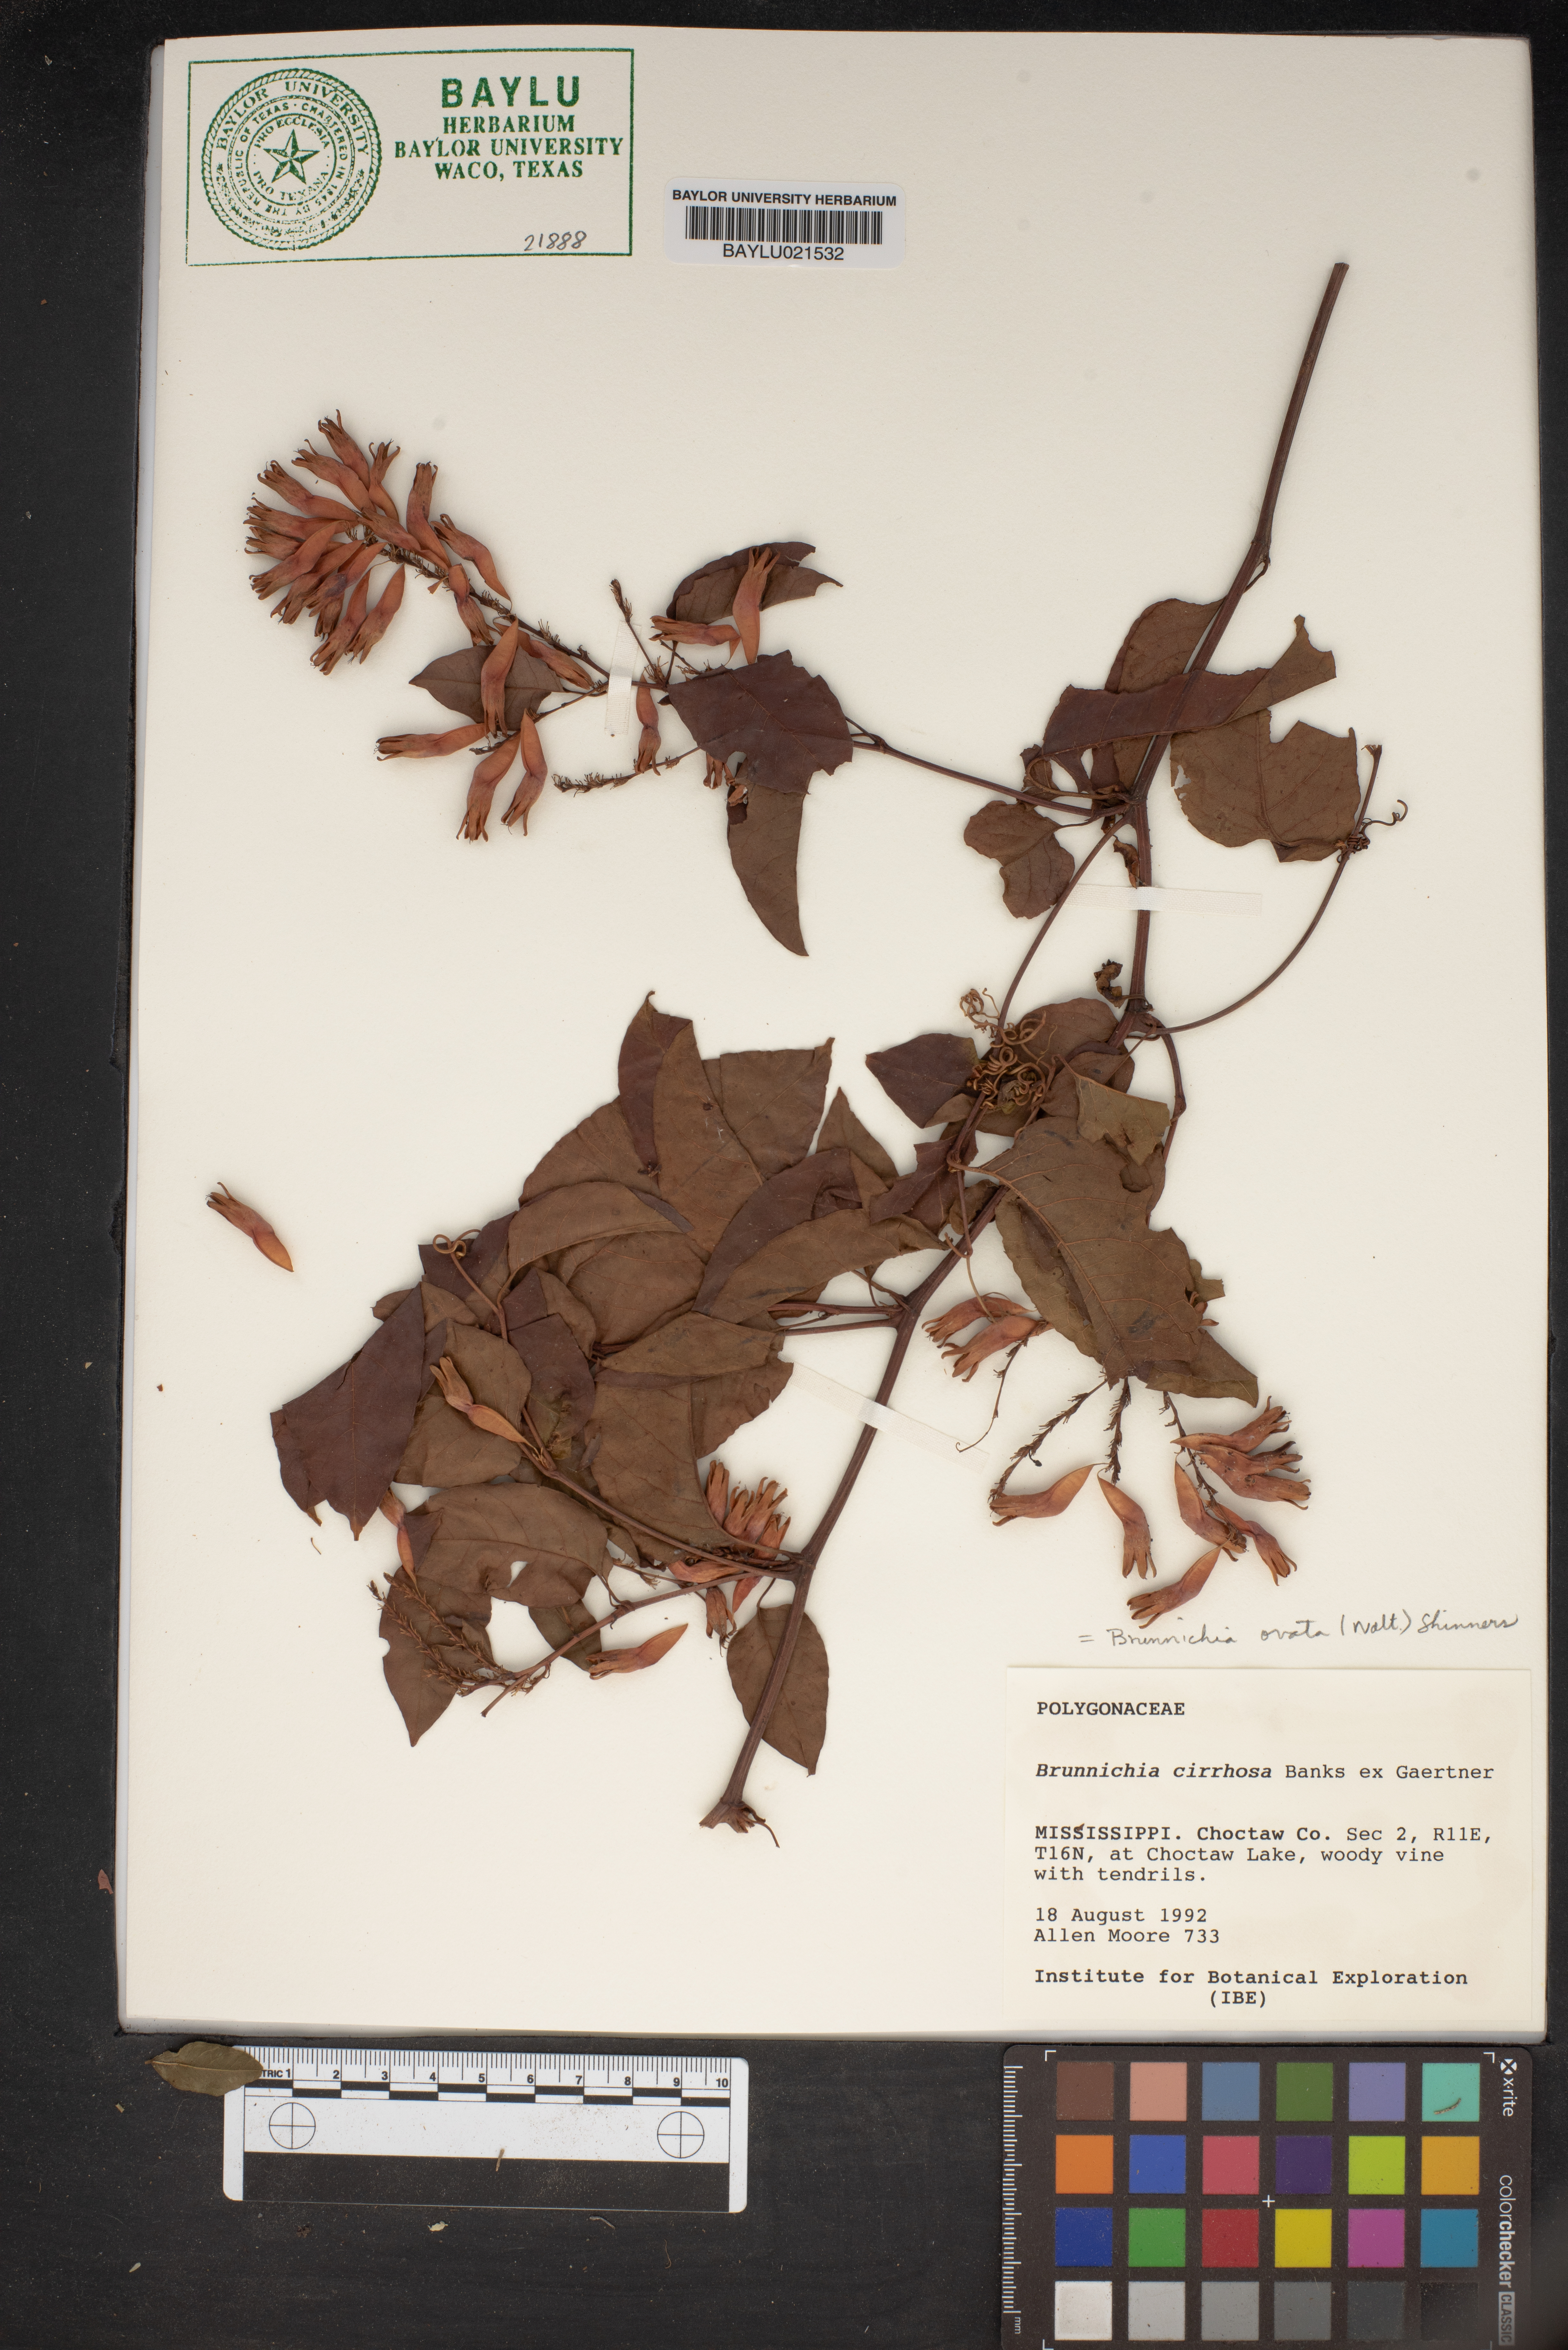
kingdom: Plantae
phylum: Tracheophyta
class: Magnoliopsida
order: Caryophyllales
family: Polygonaceae
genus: Brunnichia
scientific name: Brunnichia ovata
